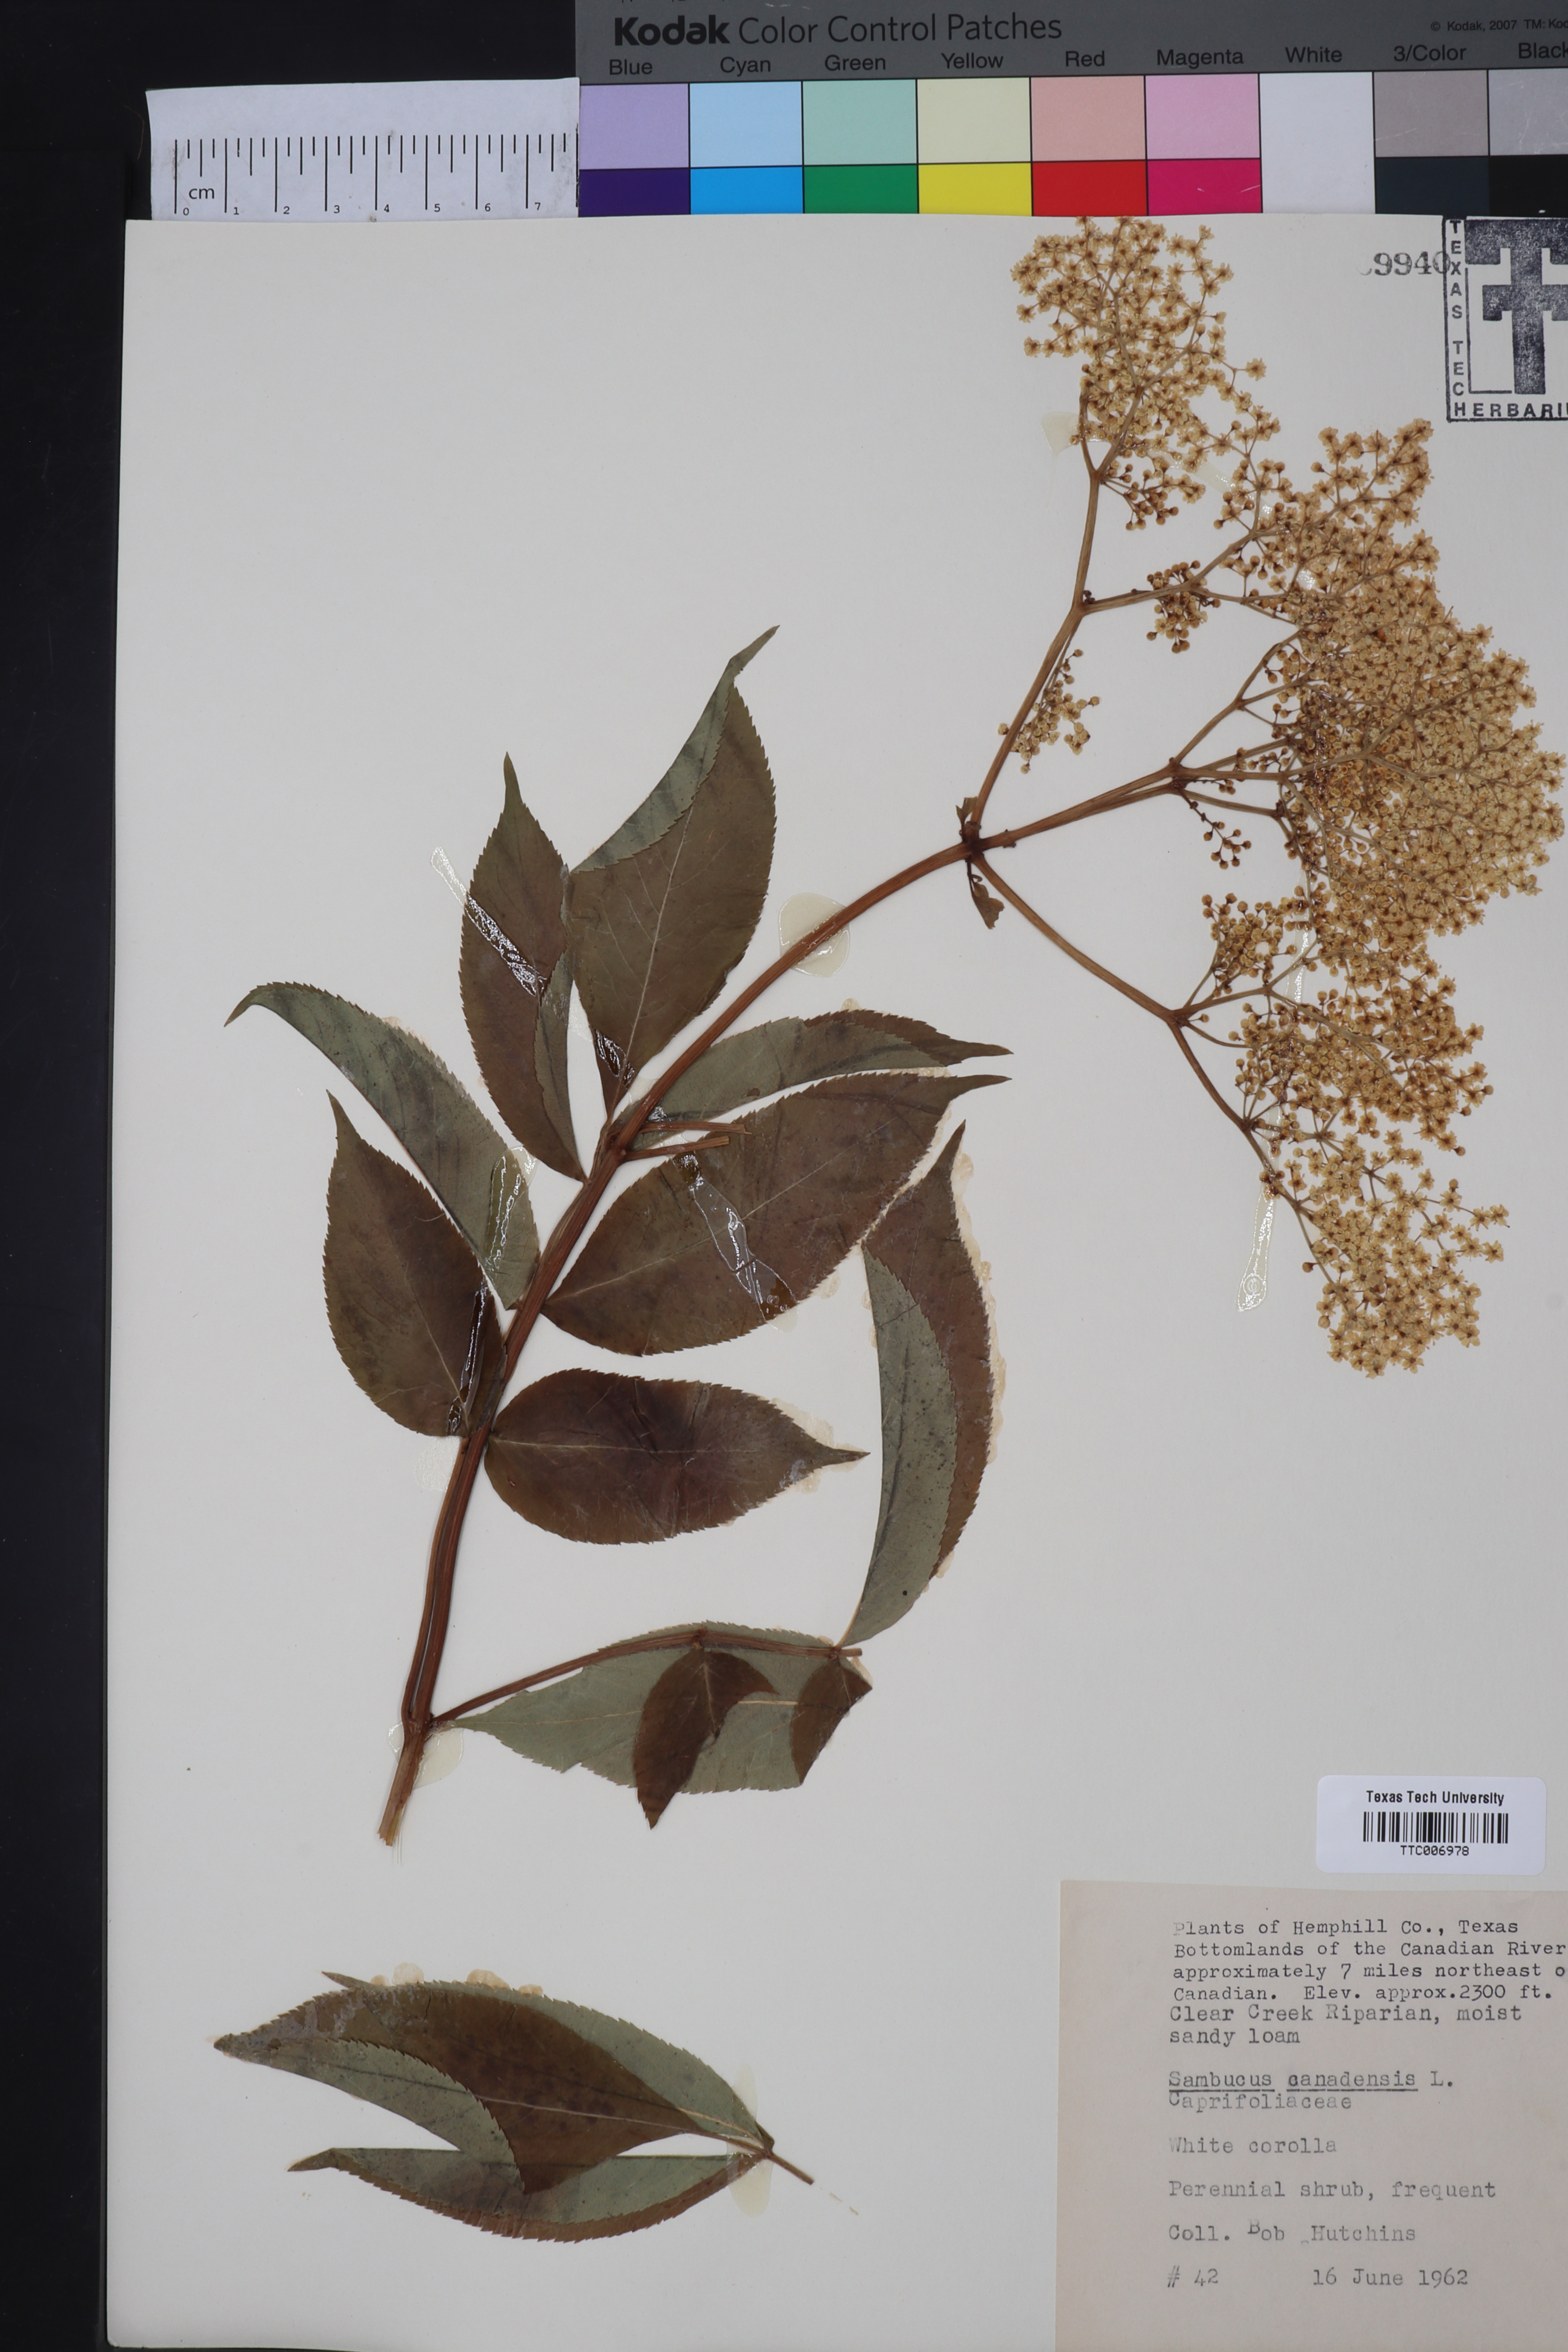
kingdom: Plantae
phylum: Tracheophyta
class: Magnoliopsida
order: Dipsacales
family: Viburnaceae
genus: Sambucus
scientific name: Sambucus canadensis
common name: American elder
